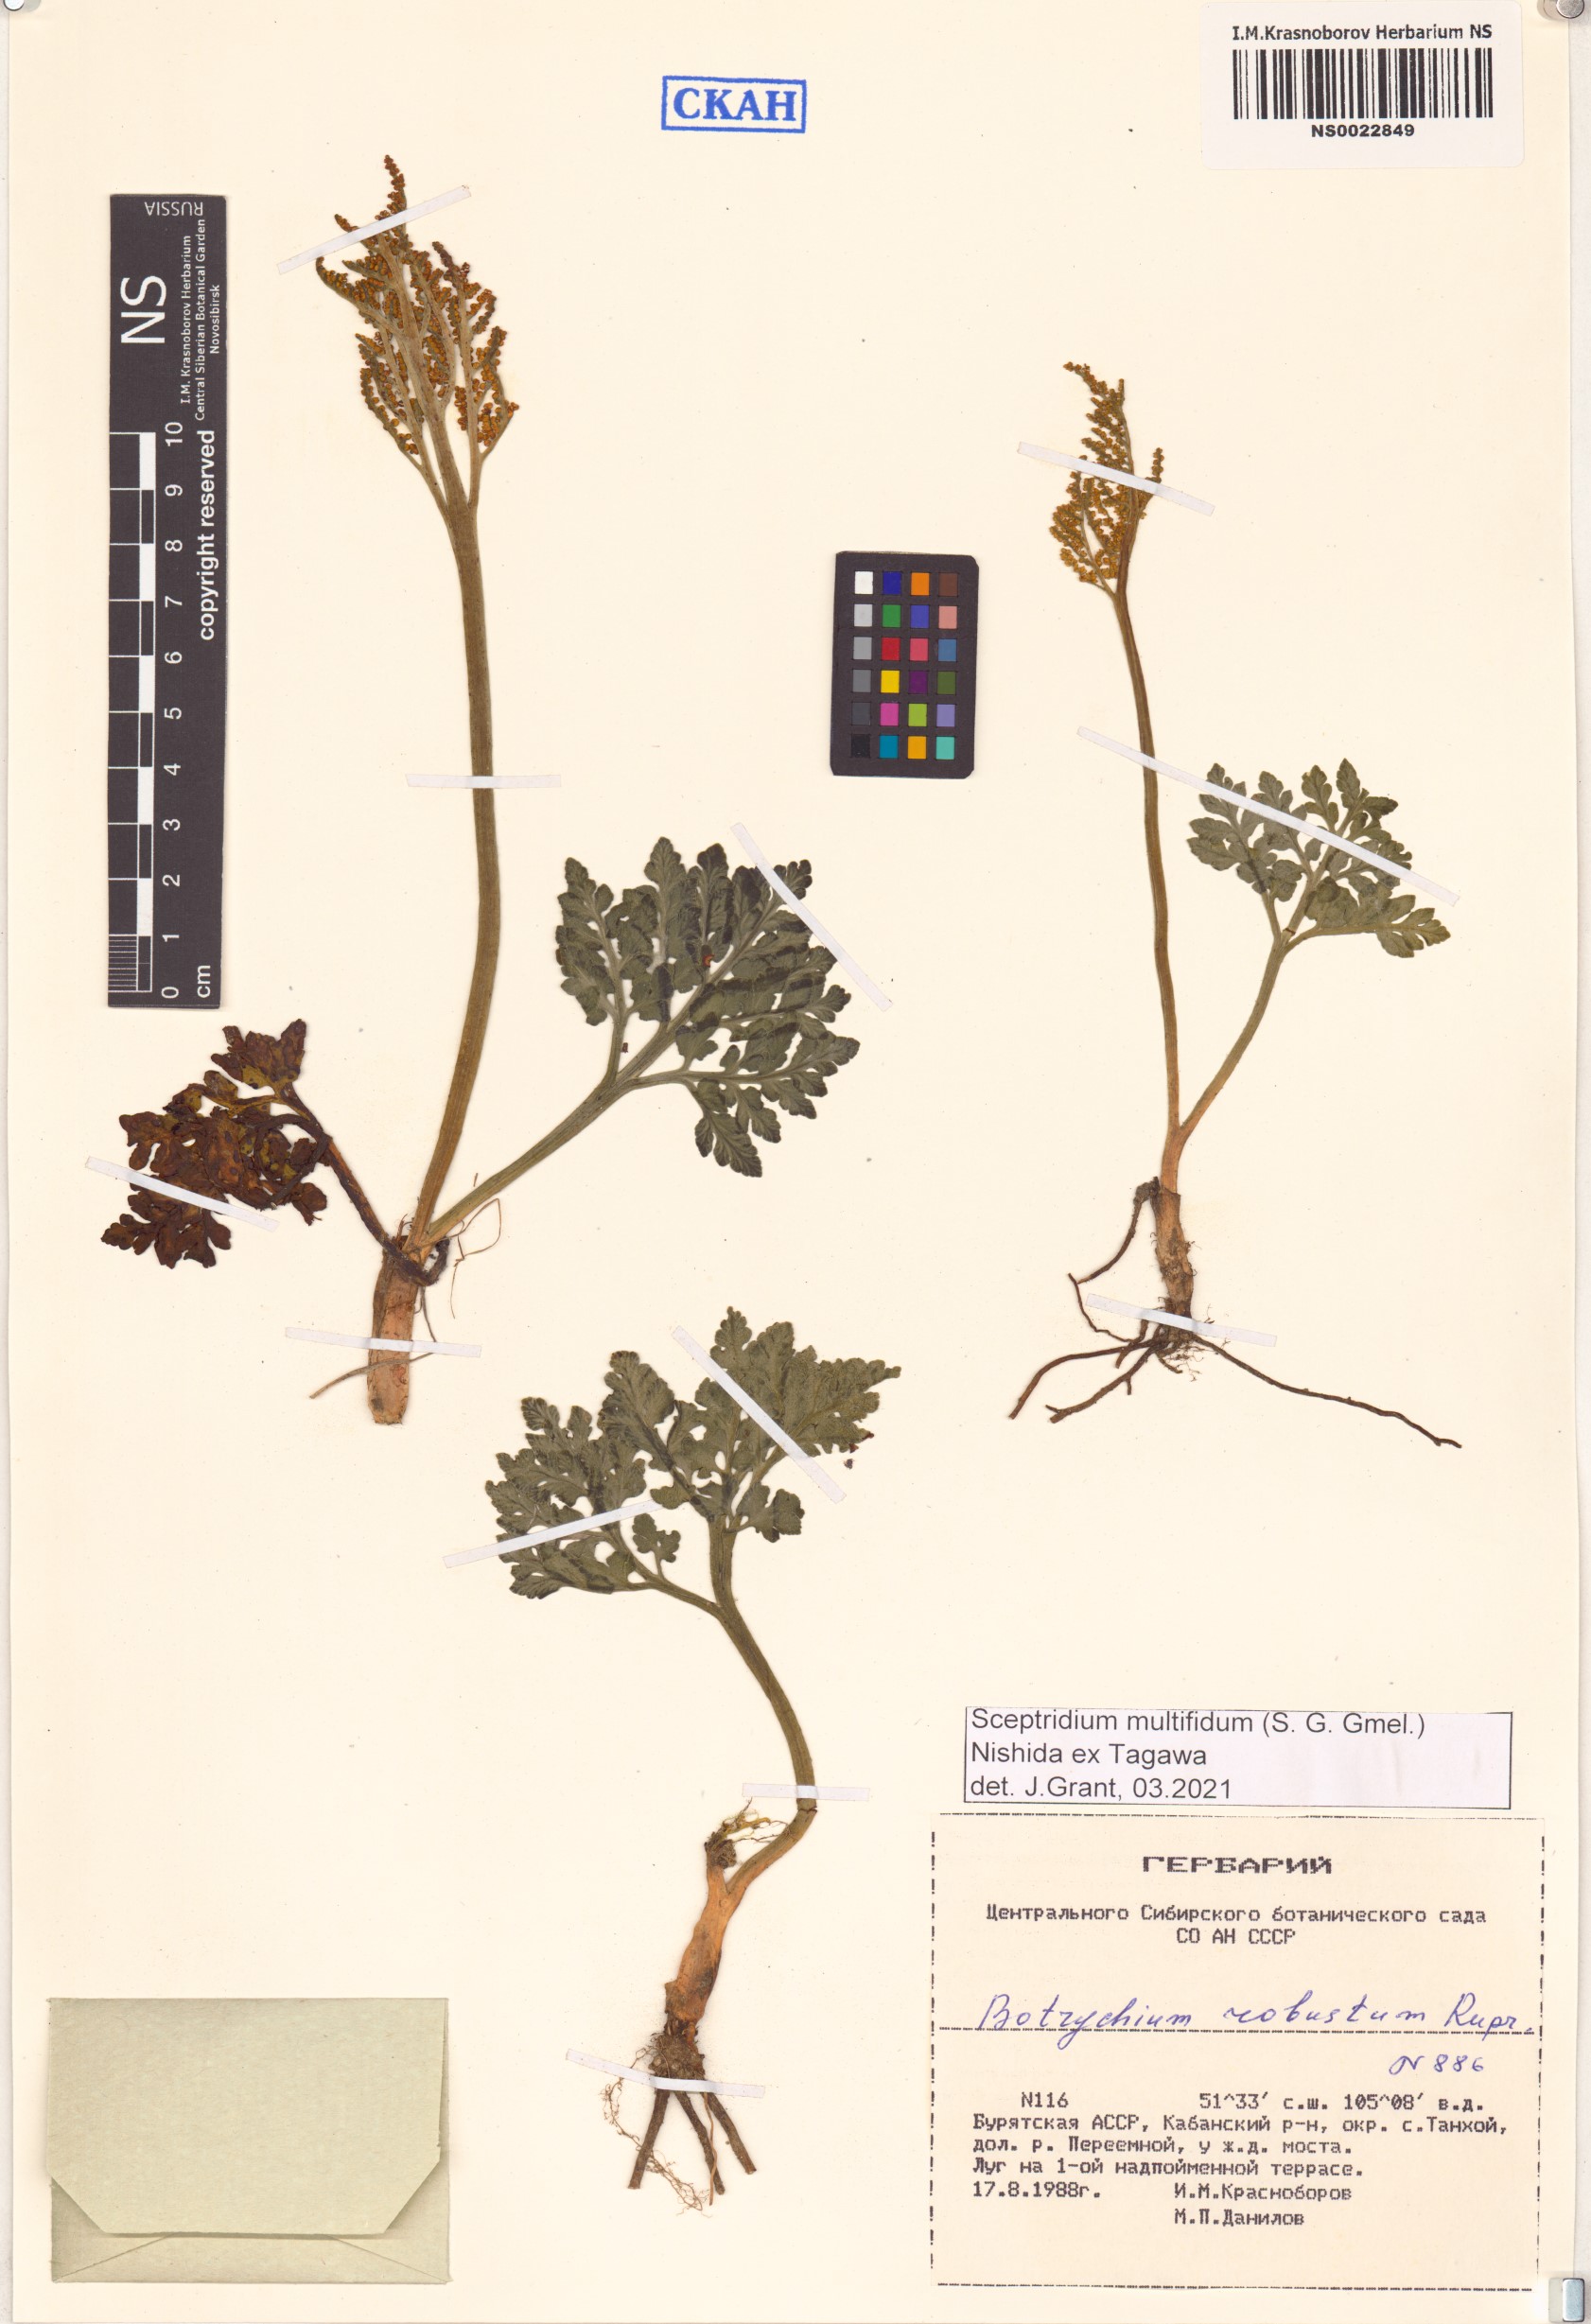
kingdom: Plantae
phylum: Tracheophyta
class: Polypodiopsida
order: Ophioglossales
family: Ophioglossaceae
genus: Sceptridium
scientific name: Sceptridium multifidum
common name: Leathery grape fern
